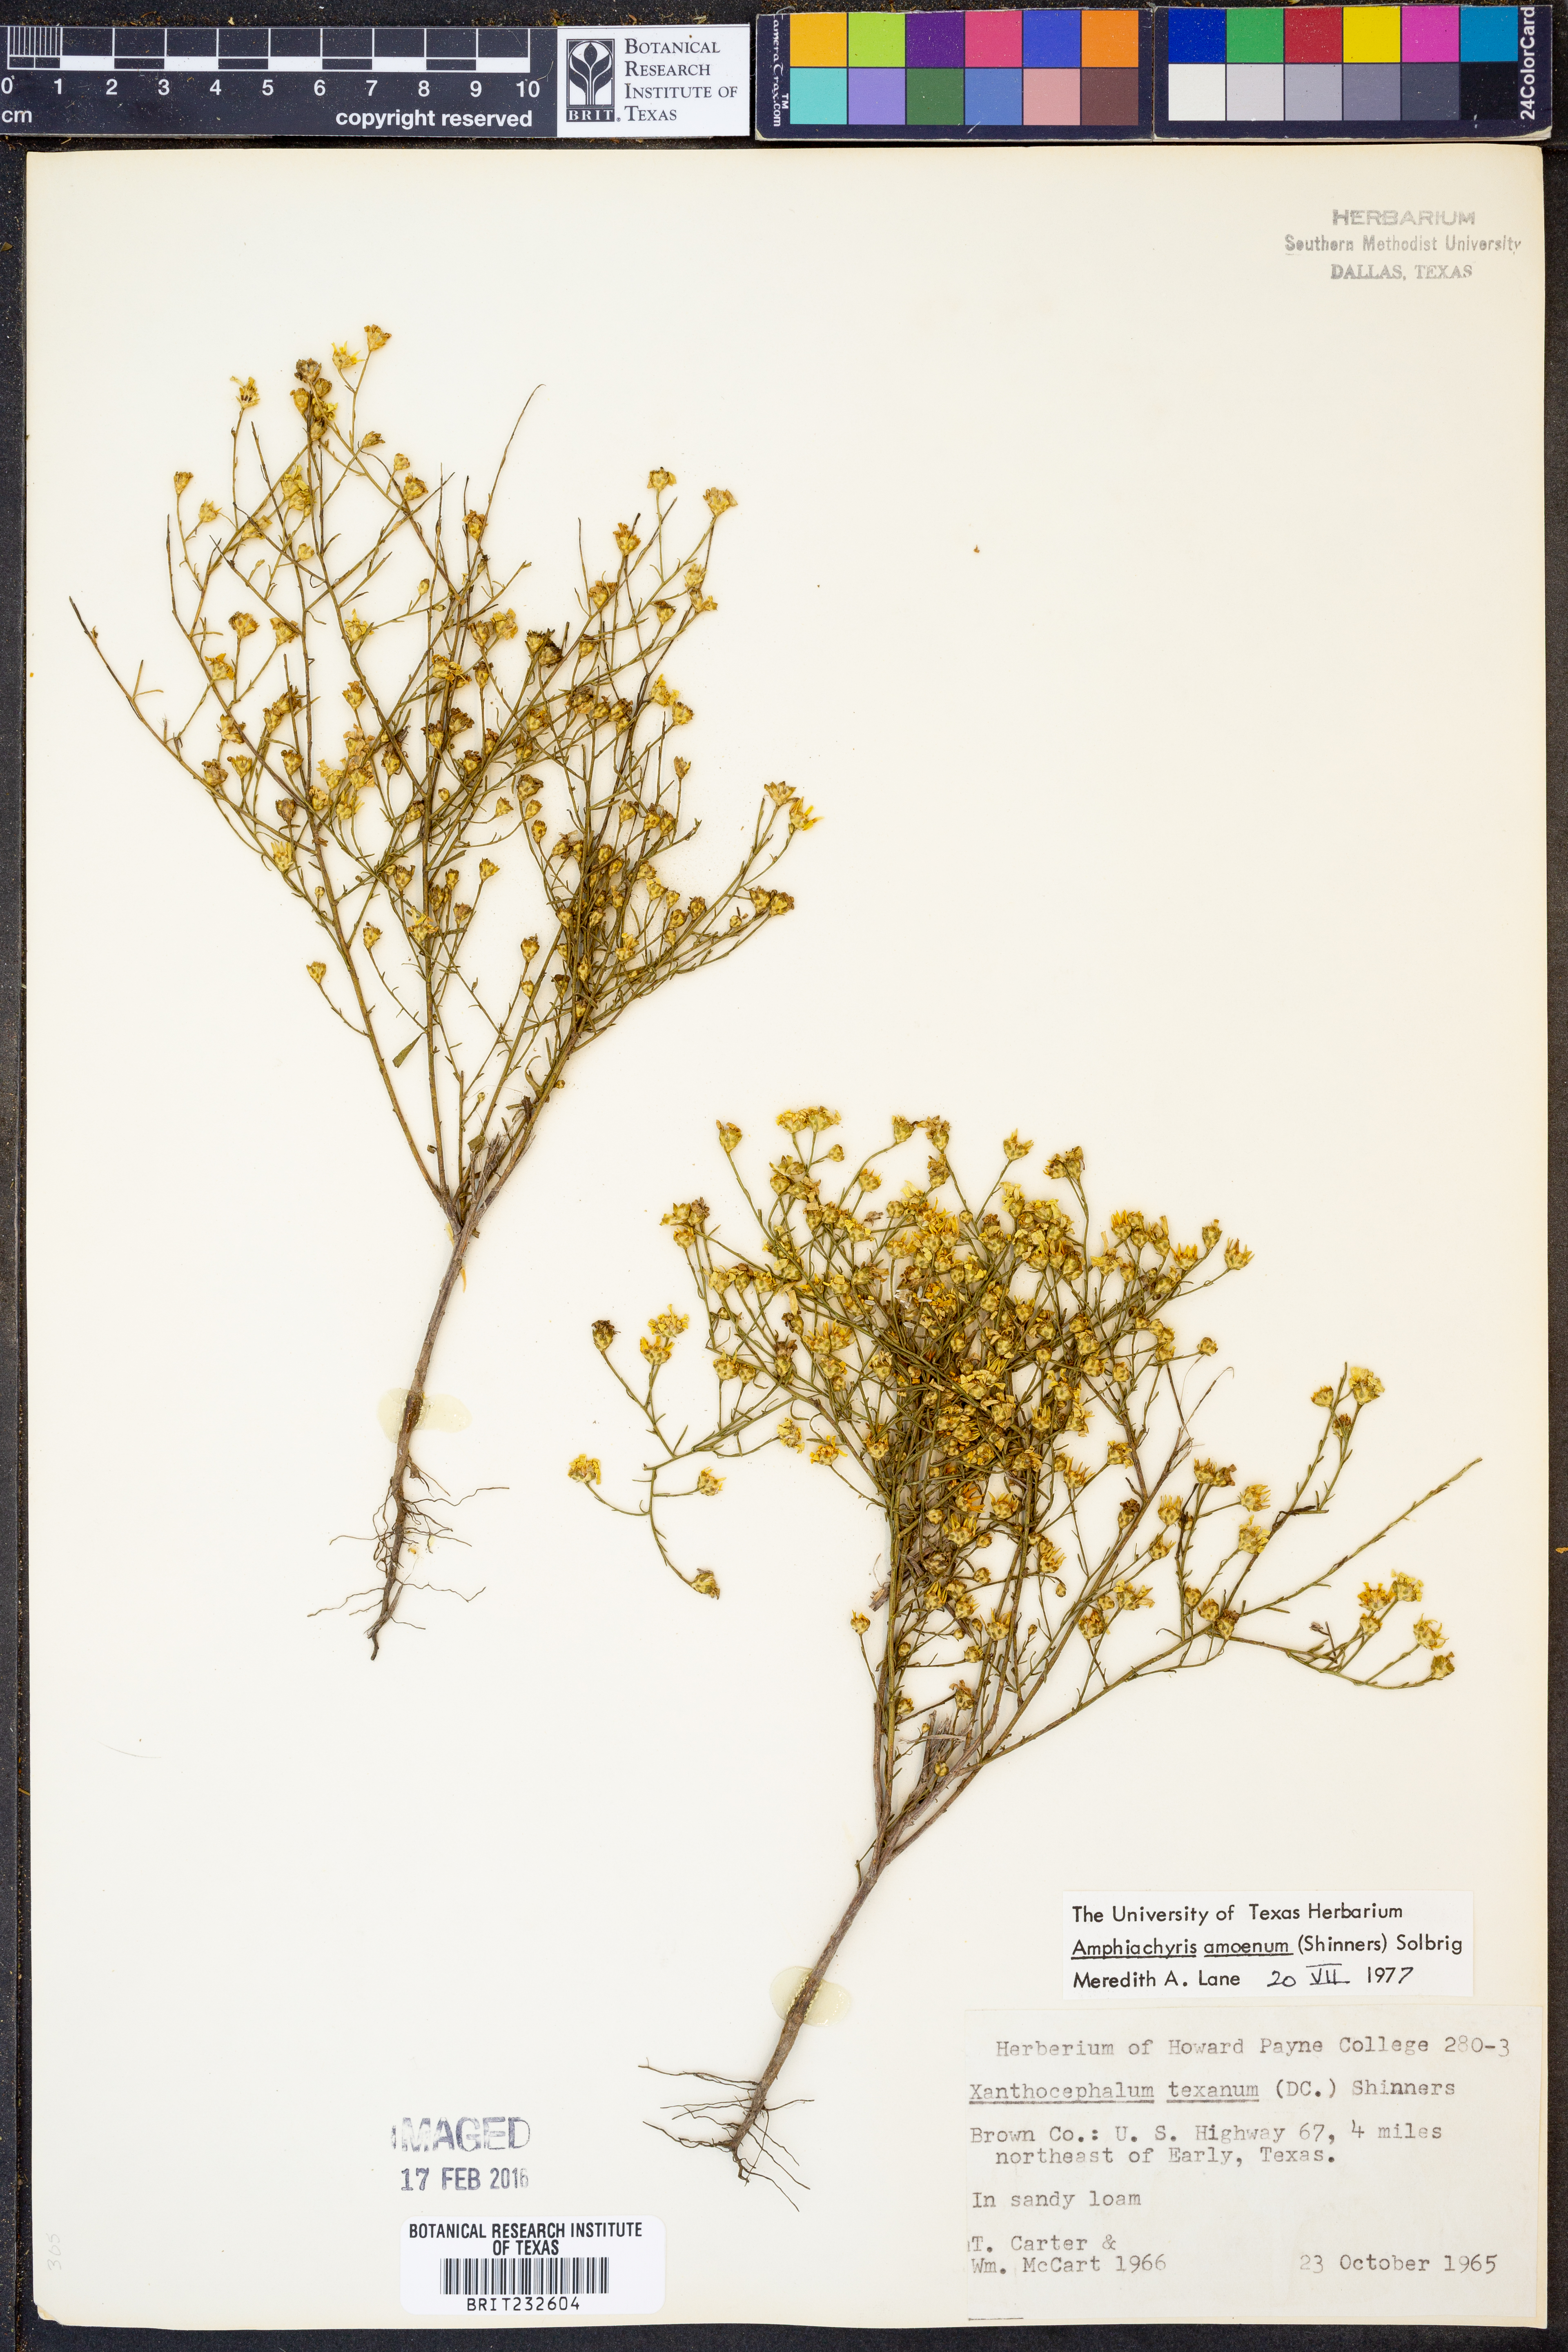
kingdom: Plantae
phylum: Tracheophyta
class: Magnoliopsida
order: Asterales
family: Asteraceae
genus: Amphiachyris
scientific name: Amphiachyris amoenum
